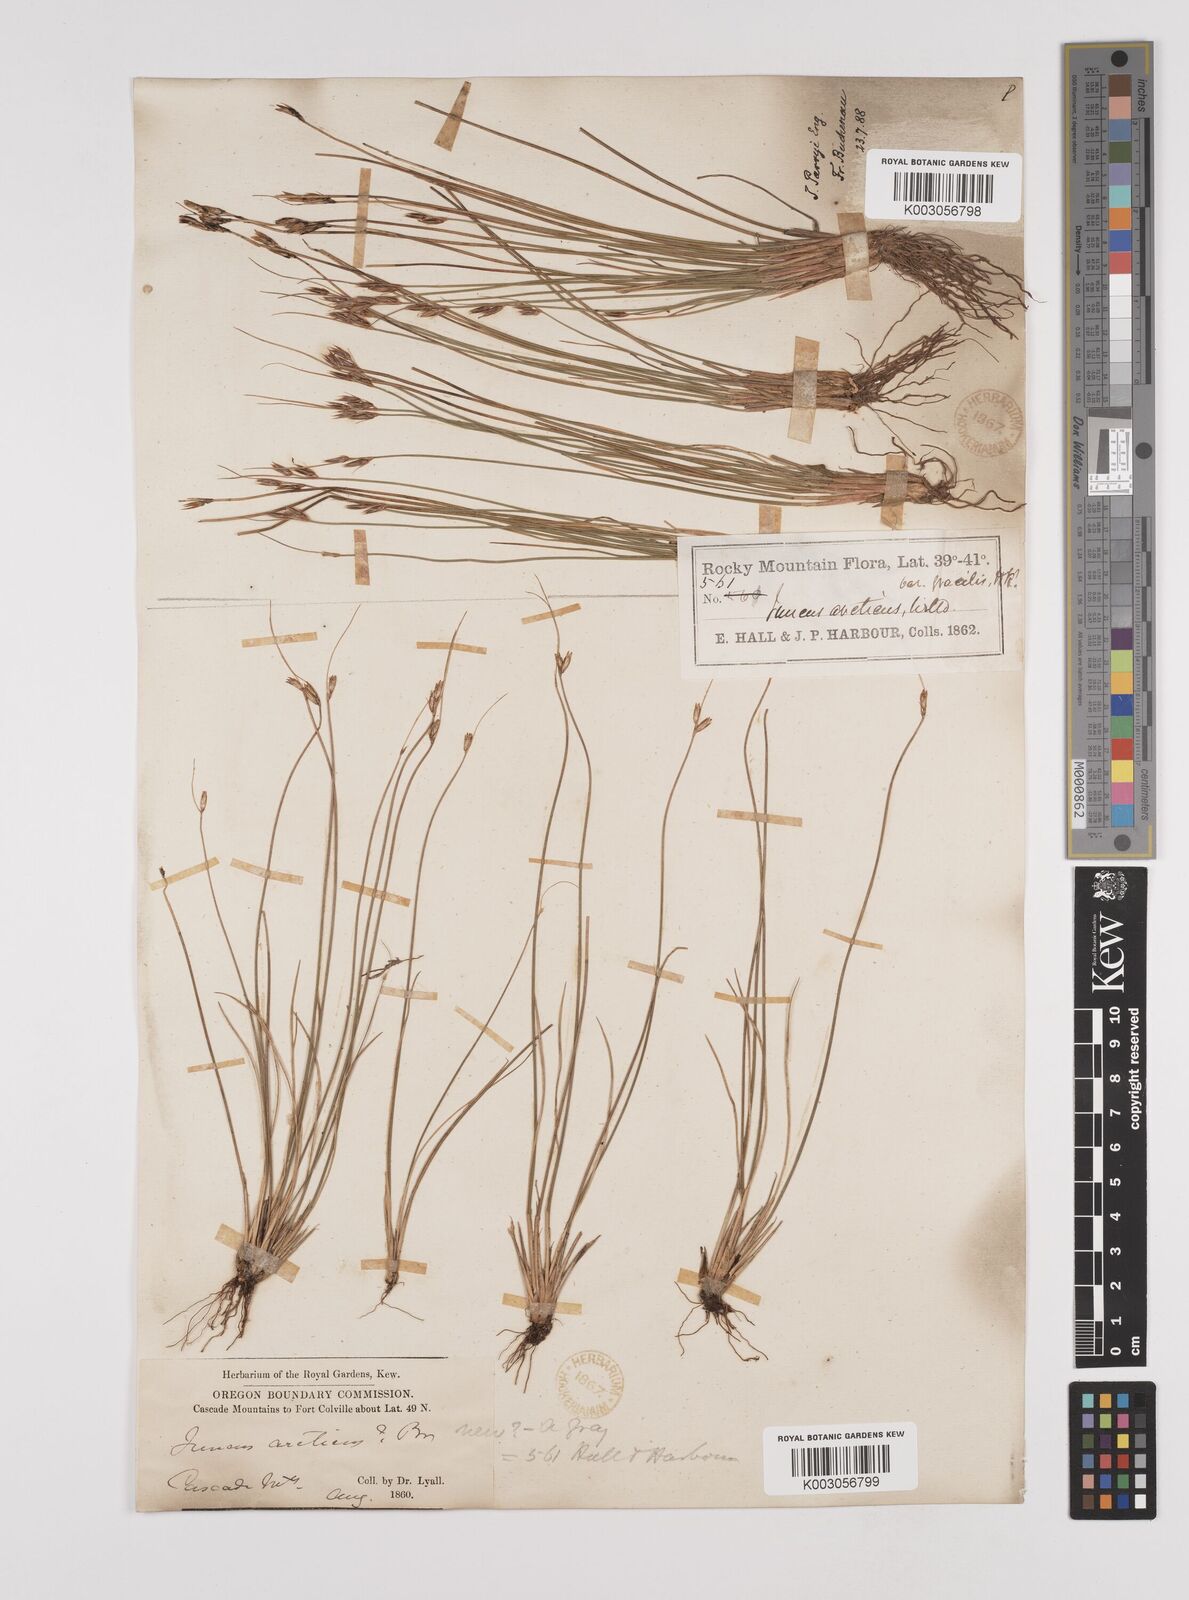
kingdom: Plantae
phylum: Tracheophyta
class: Liliopsida
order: Poales
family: Juncaceae
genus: Juncus
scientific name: Juncus parryi
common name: Parry's rush
